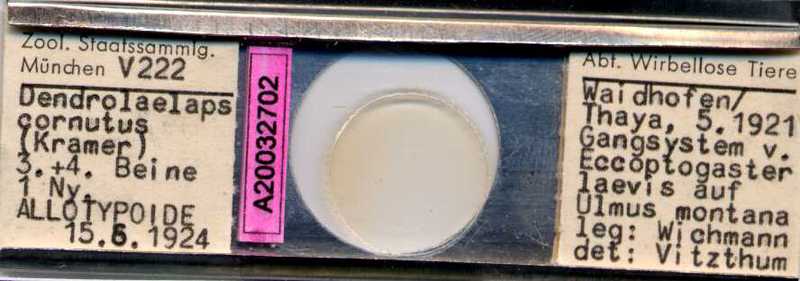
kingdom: Animalia
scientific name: Animalia
